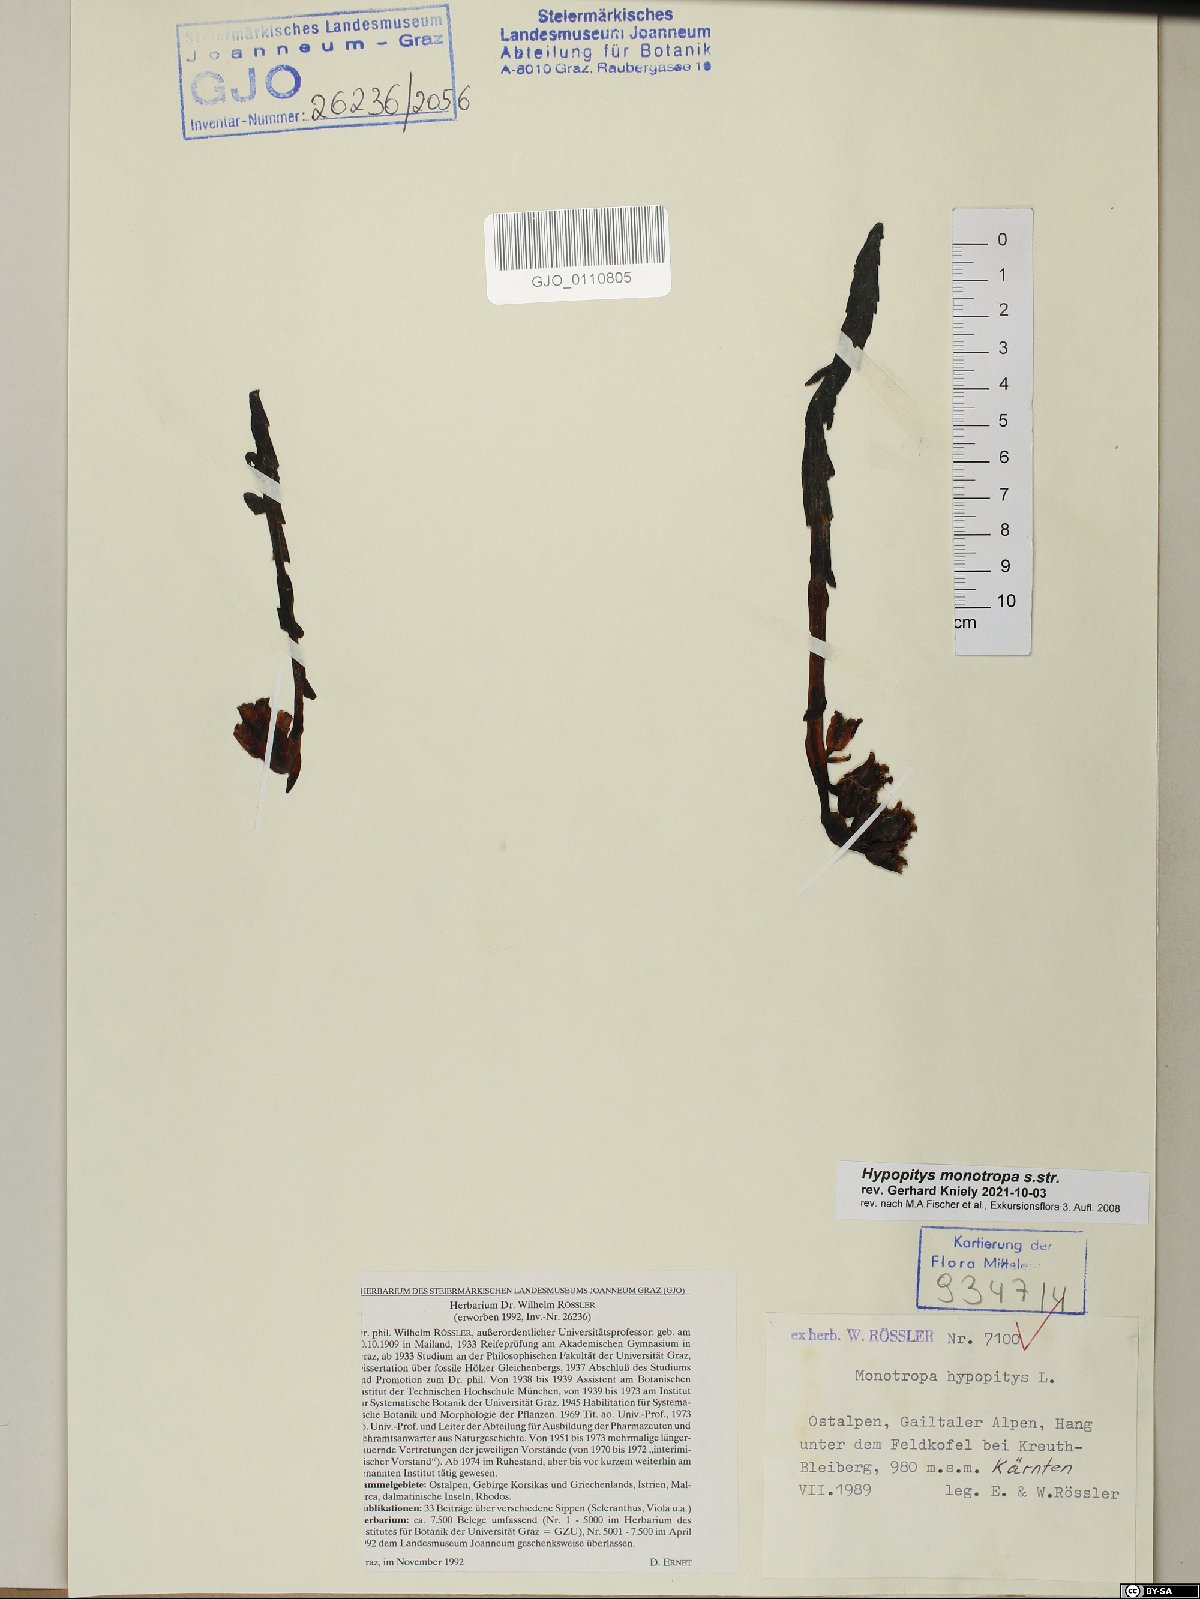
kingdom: Plantae
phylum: Tracheophyta
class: Magnoliopsida
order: Ericales
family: Ericaceae
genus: Hypopitys
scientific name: Hypopitys monotropa
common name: Yellow bird's-nest
